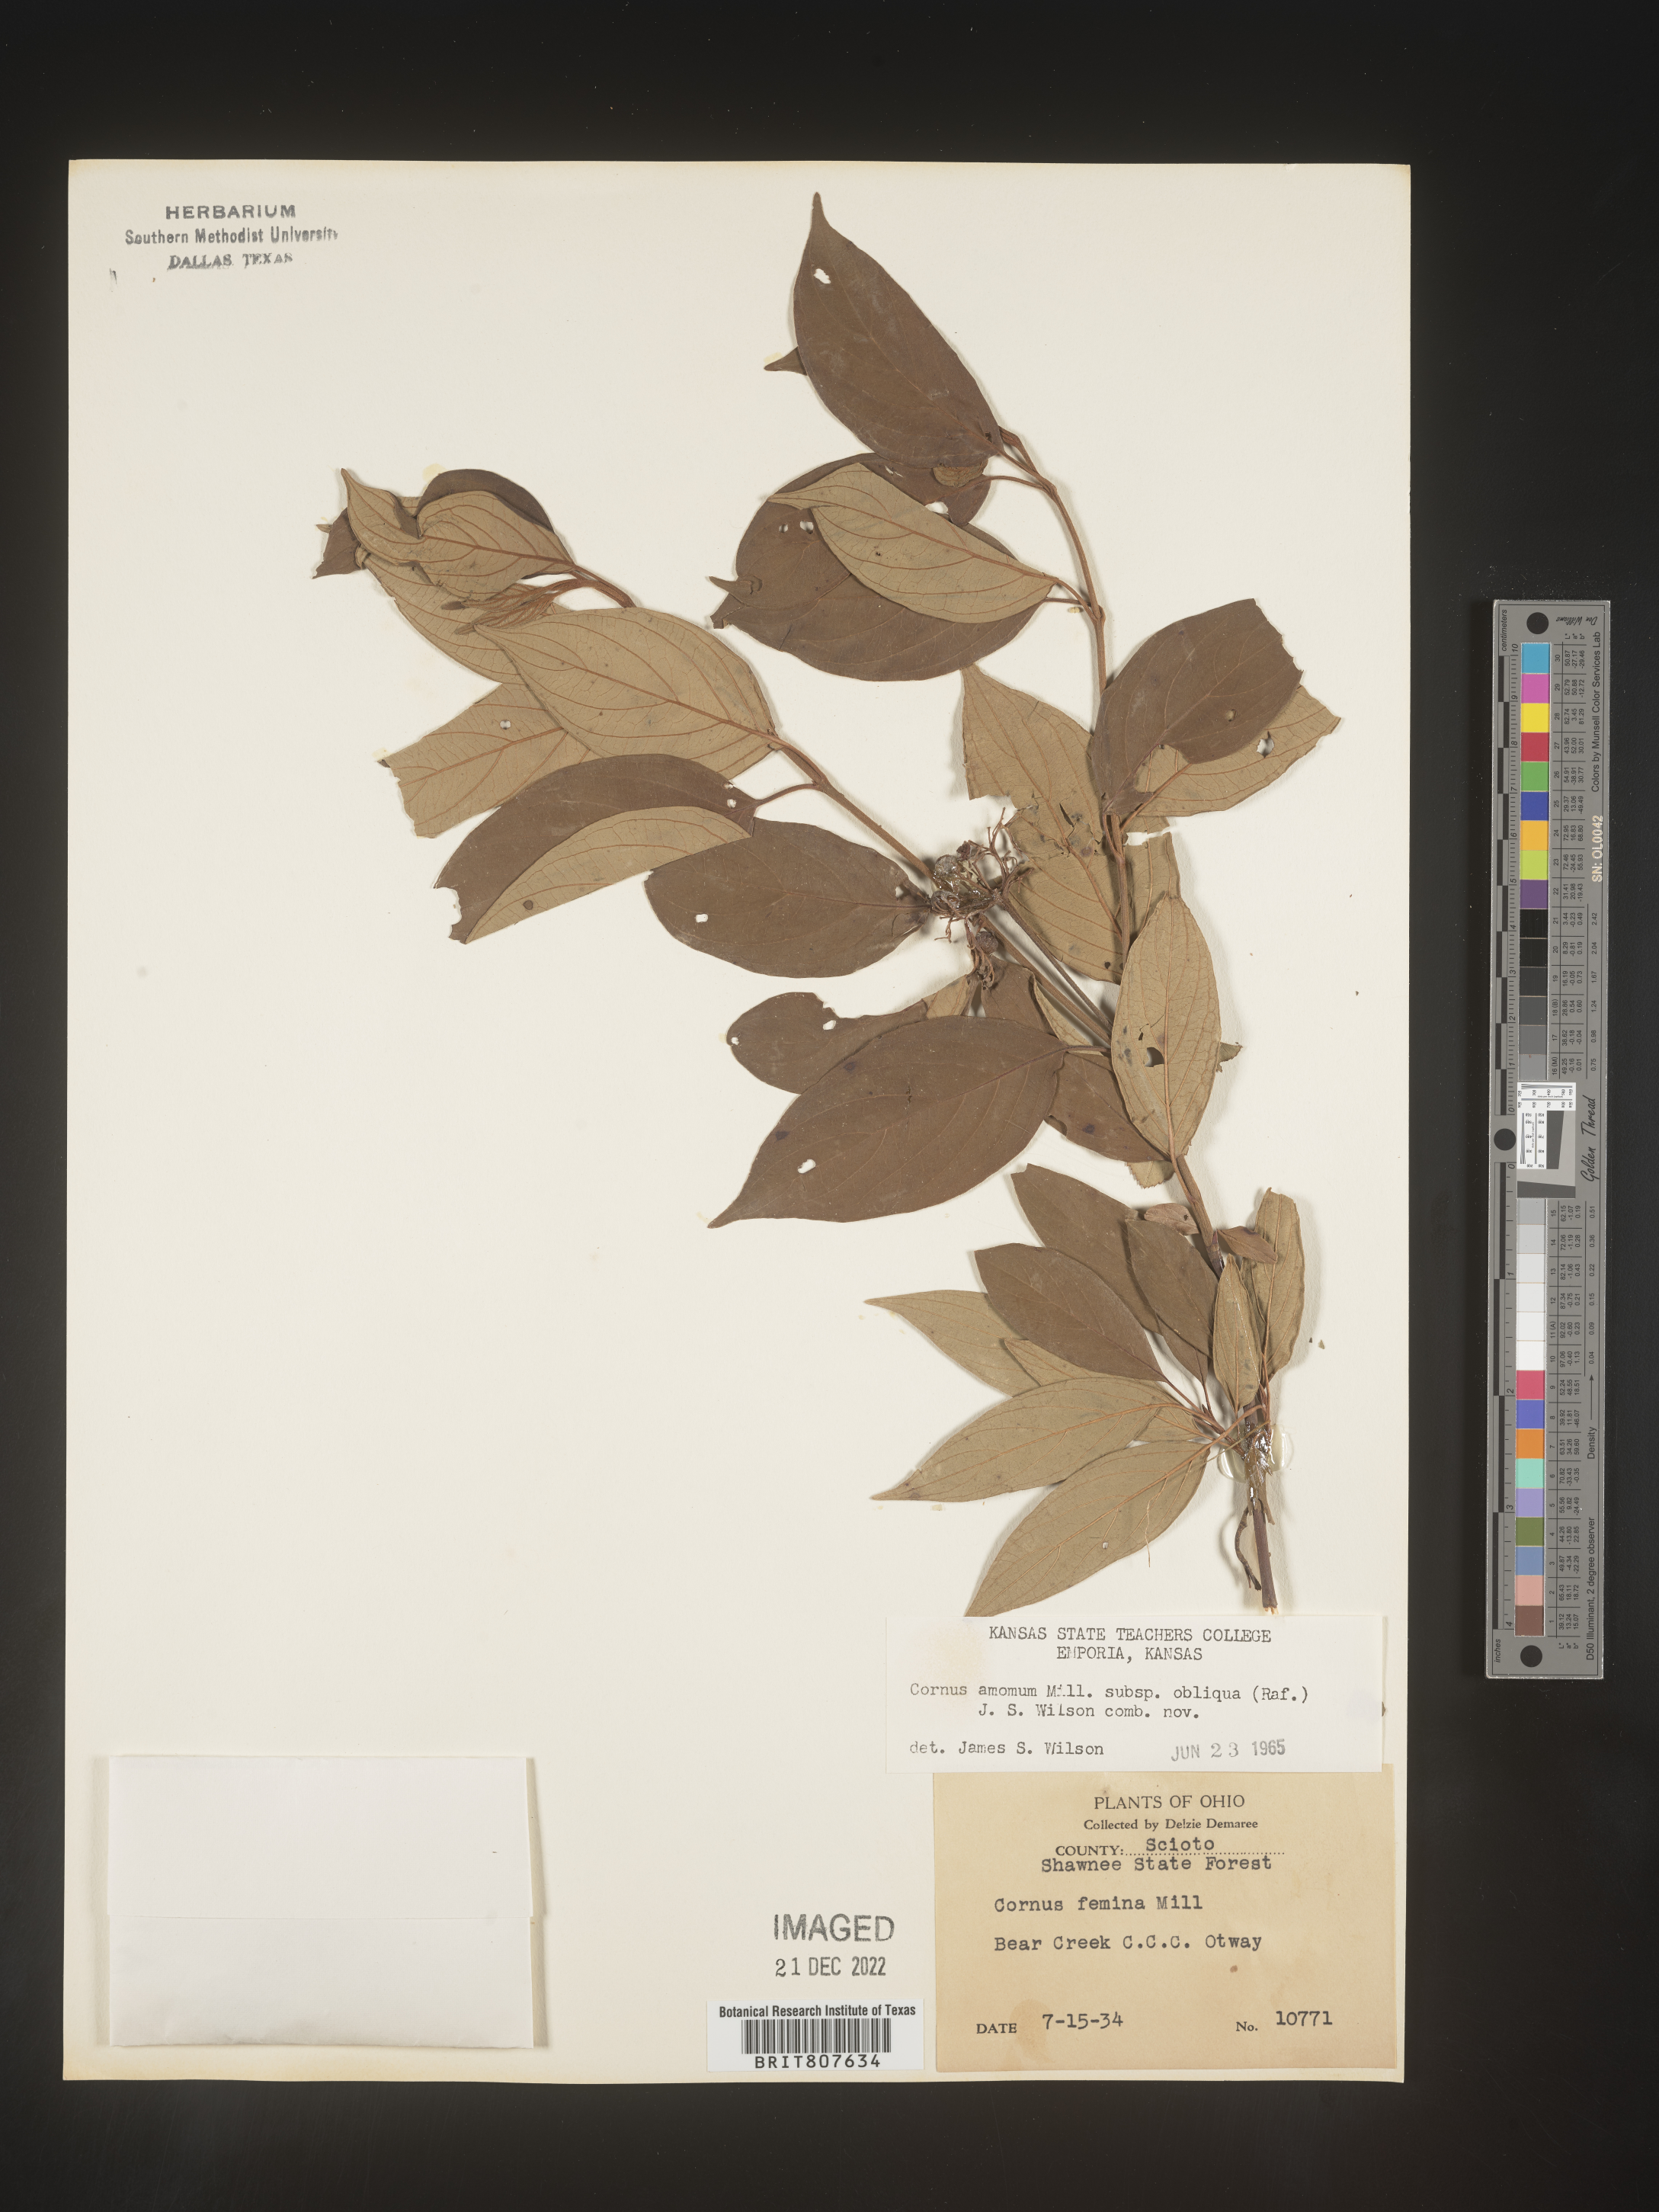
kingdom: Plantae
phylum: Tracheophyta
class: Magnoliopsida
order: Cornales
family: Cornaceae
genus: Cornus
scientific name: Cornus obliqua
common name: Pale dogwood
